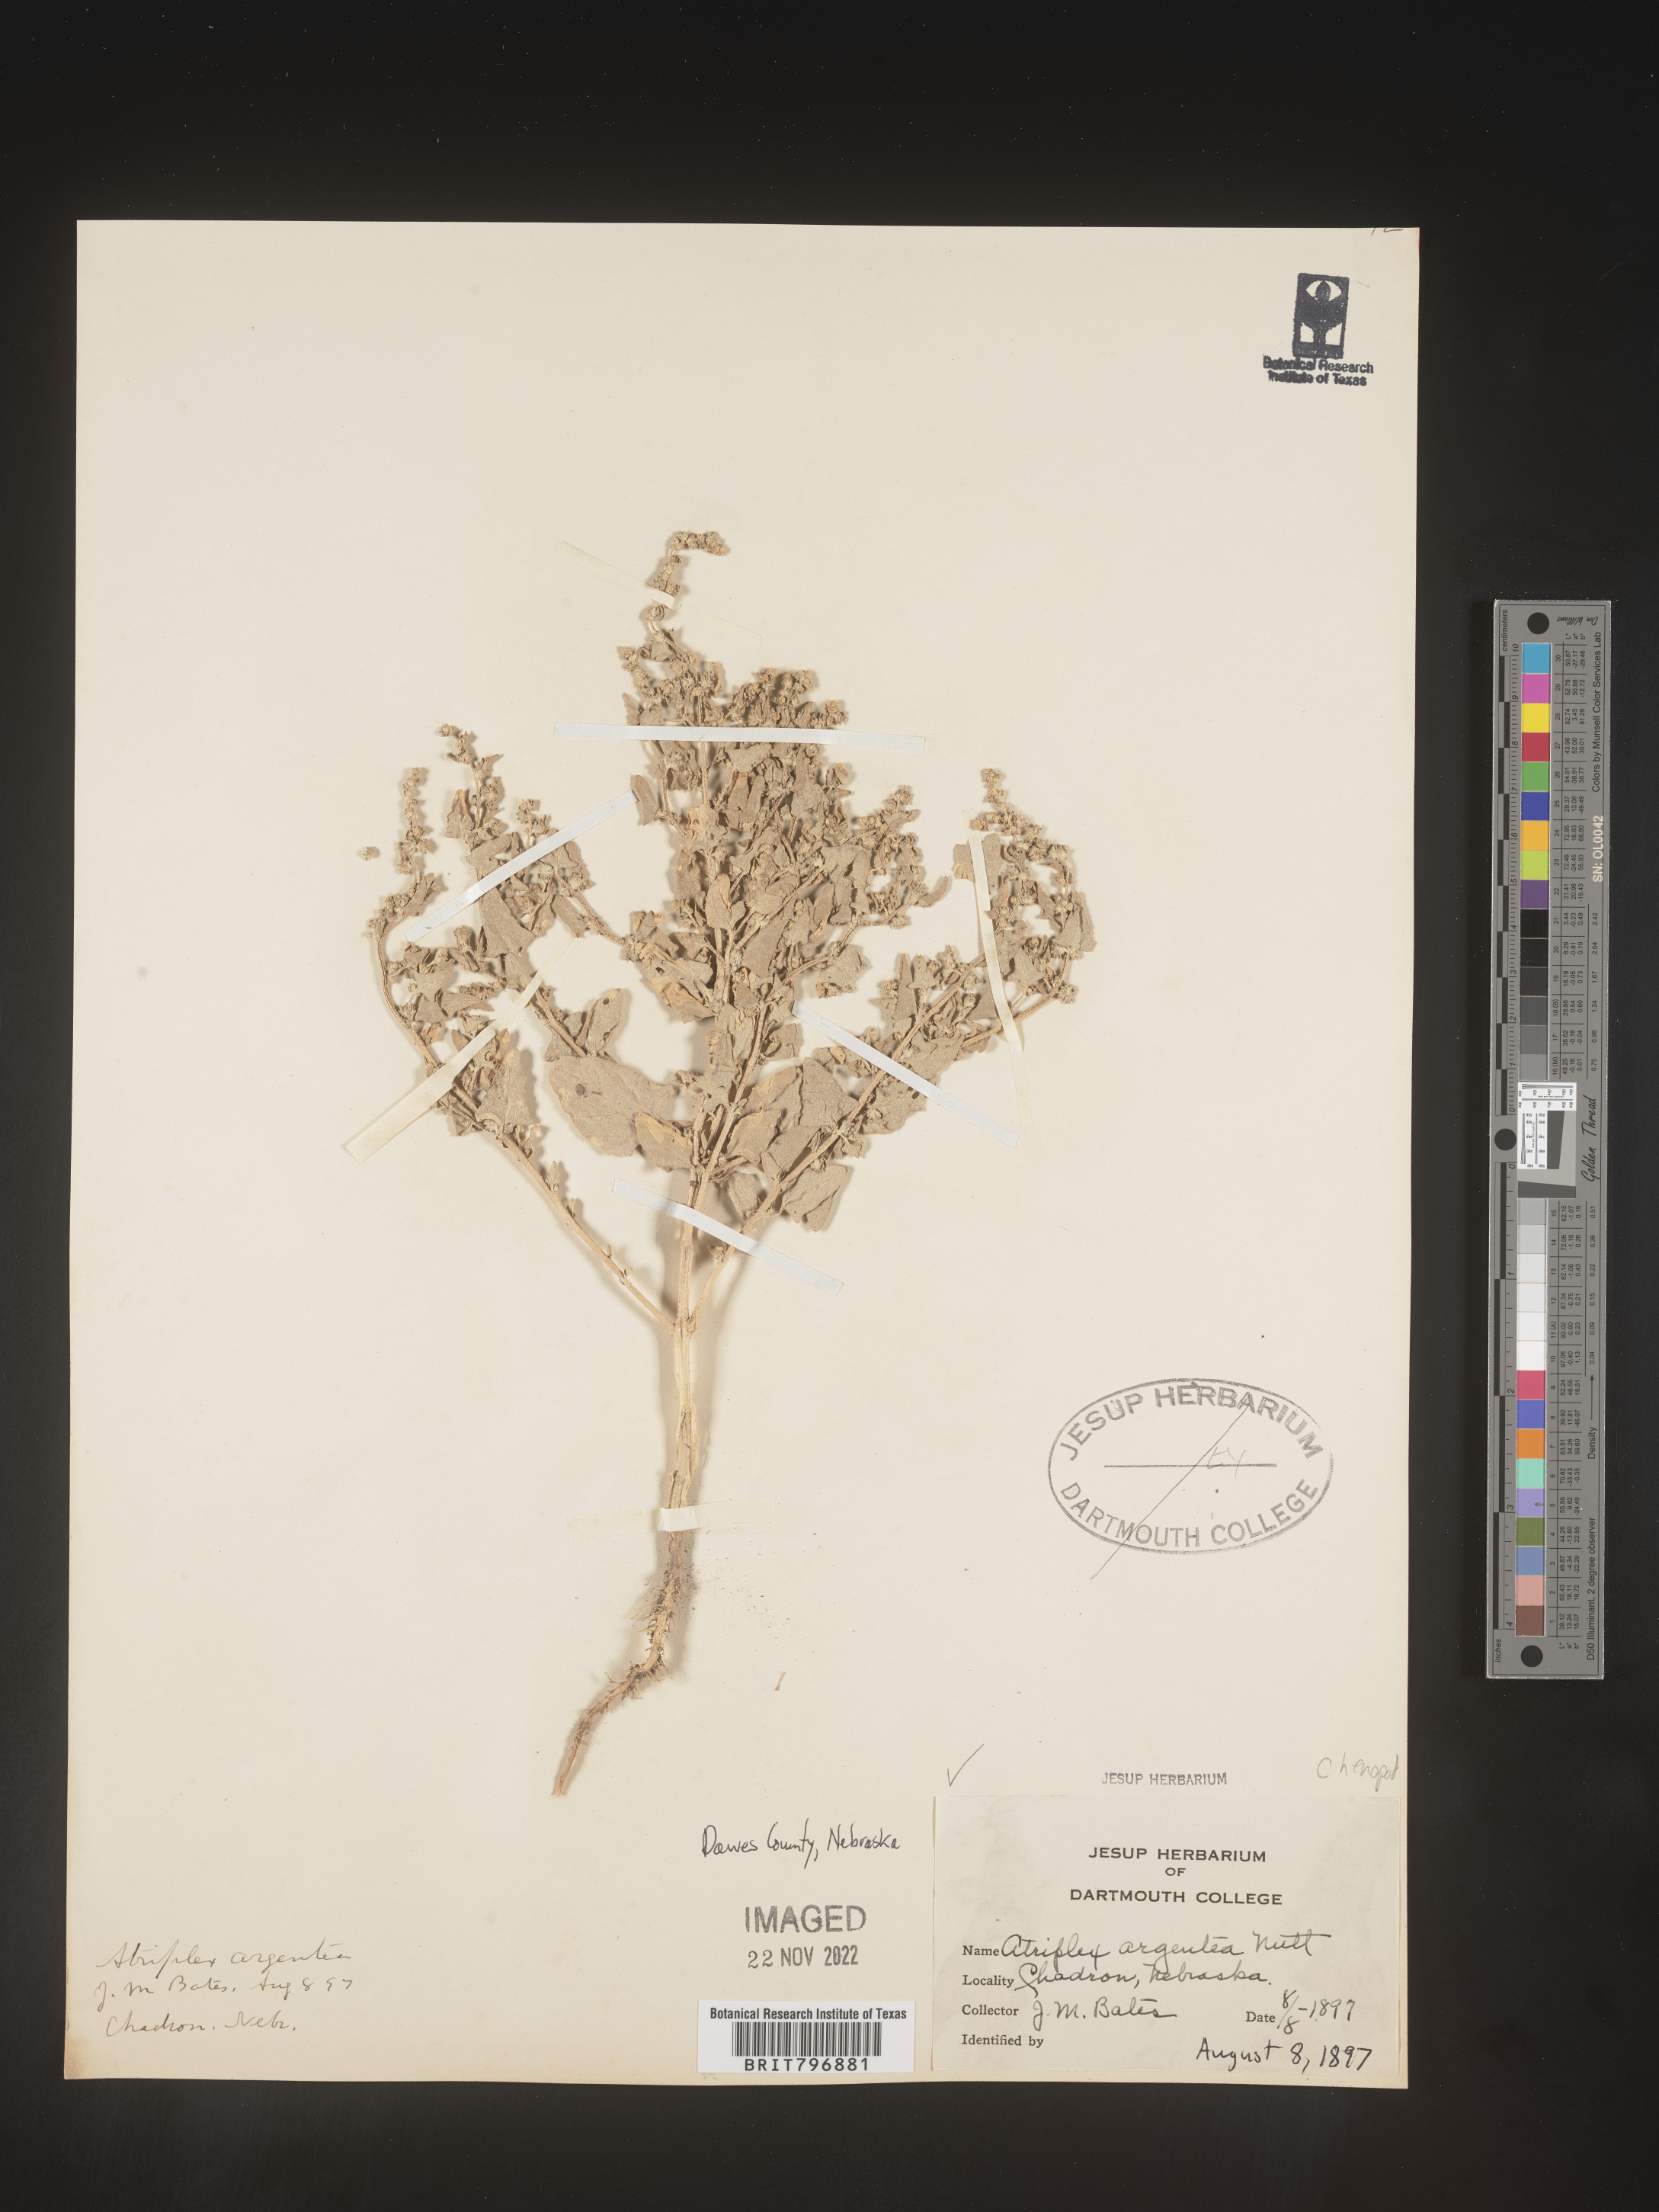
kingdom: Plantae
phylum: Tracheophyta
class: Magnoliopsida
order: Caryophyllales
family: Amaranthaceae
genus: Atriplex
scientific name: Atriplex argentea
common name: Silverscale
